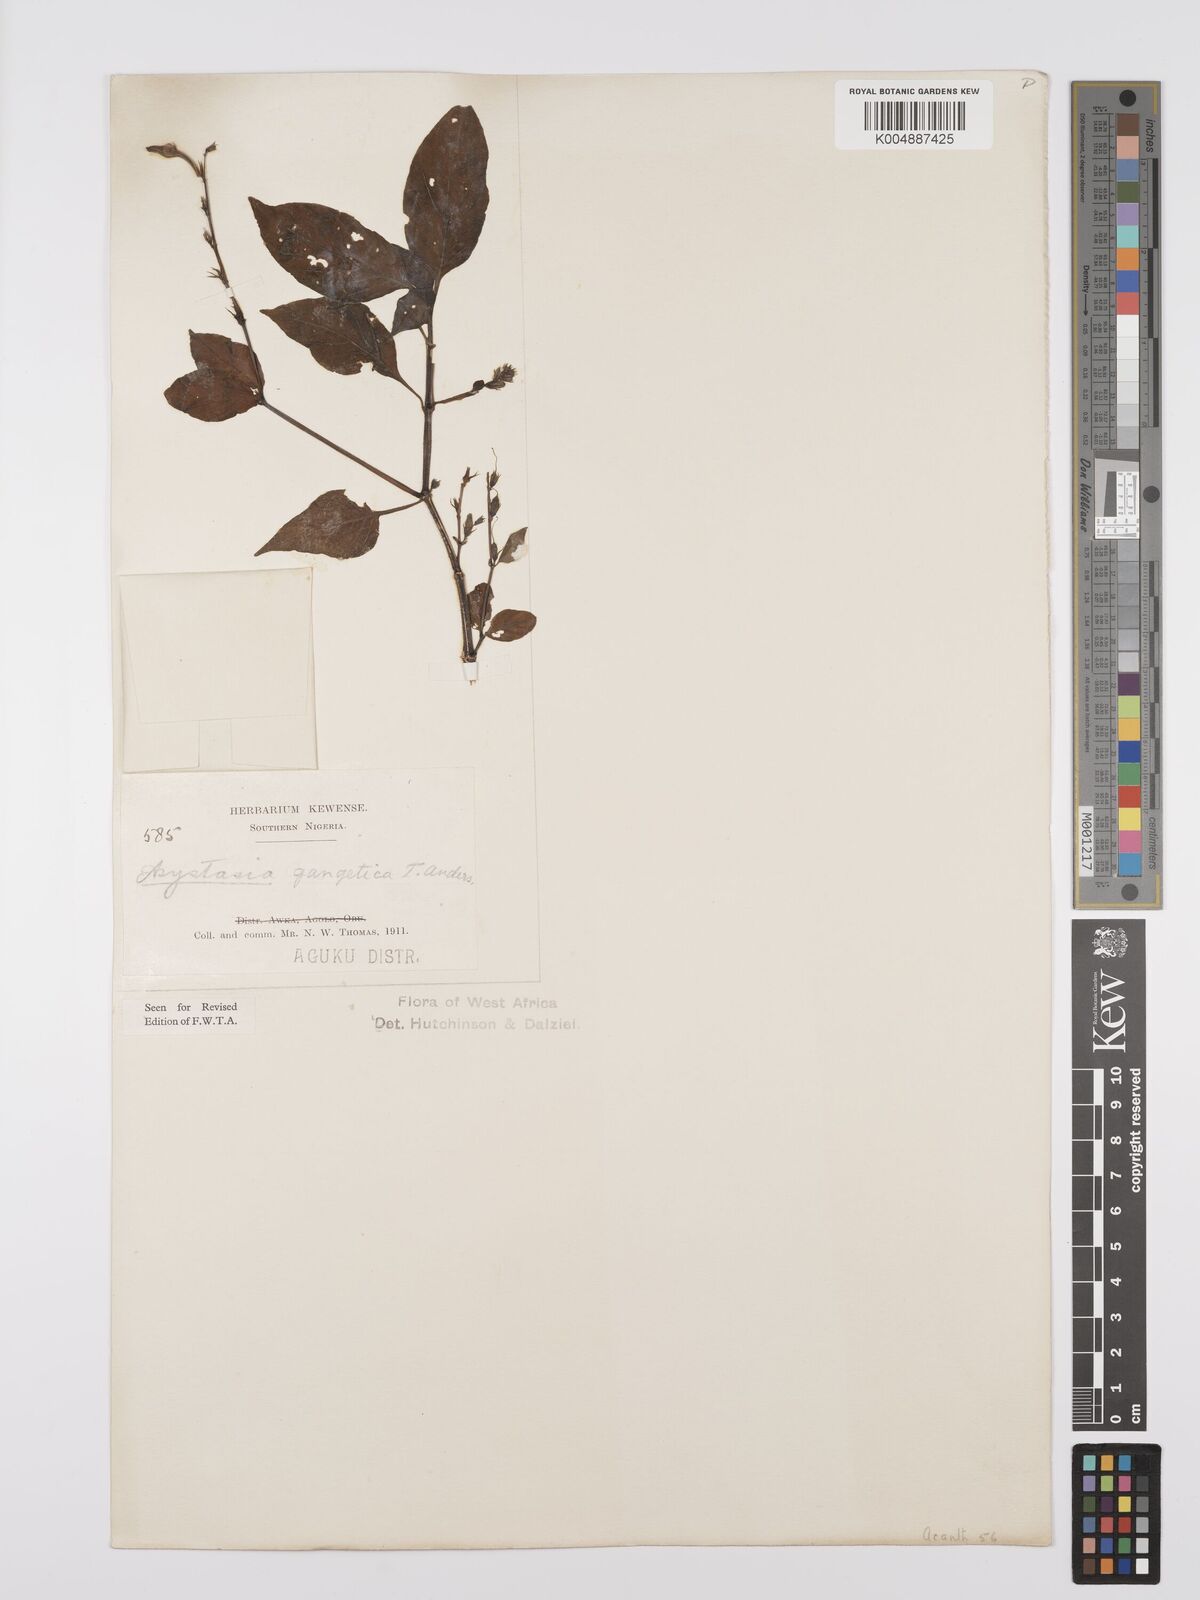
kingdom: Plantae
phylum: Tracheophyta
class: Magnoliopsida
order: Lamiales
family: Acanthaceae
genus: Asystasia
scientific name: Asystasia gangetica
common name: Chinese violet
